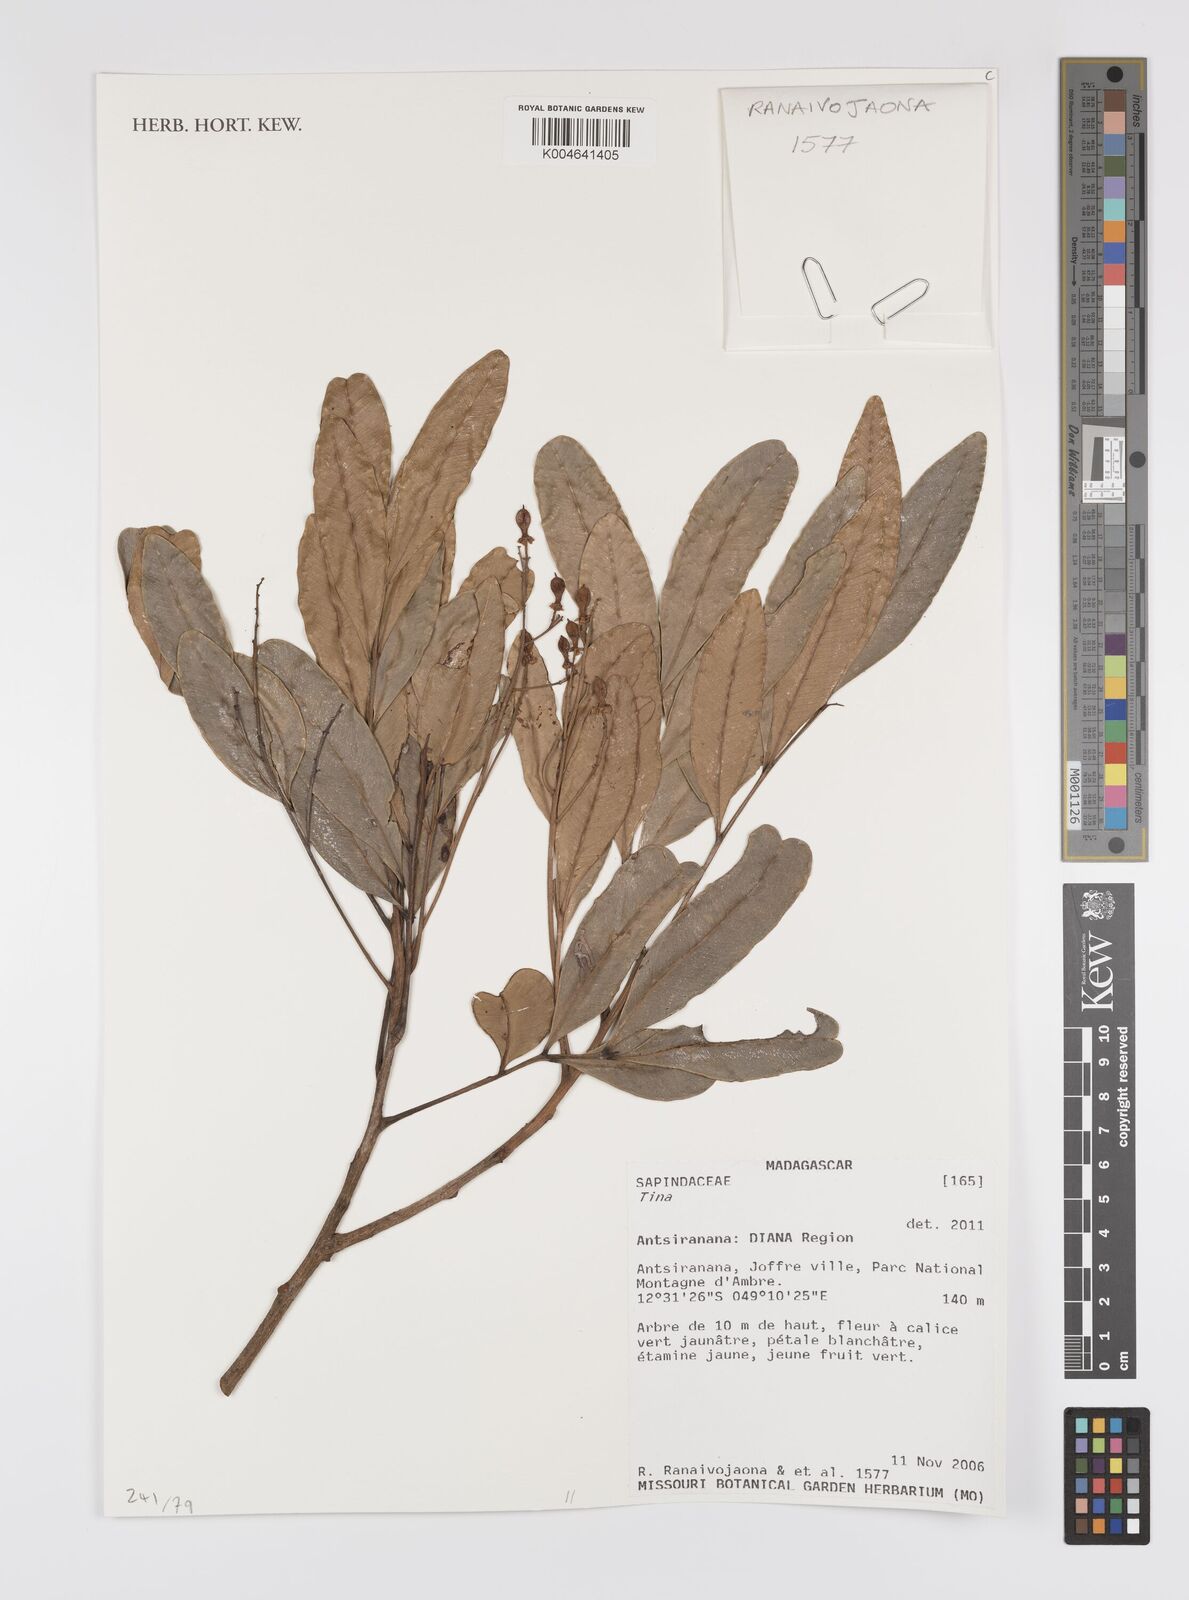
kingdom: Plantae
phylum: Tracheophyta
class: Magnoliopsida
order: Sapindales
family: Sapindaceae
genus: Tina
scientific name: Tina
